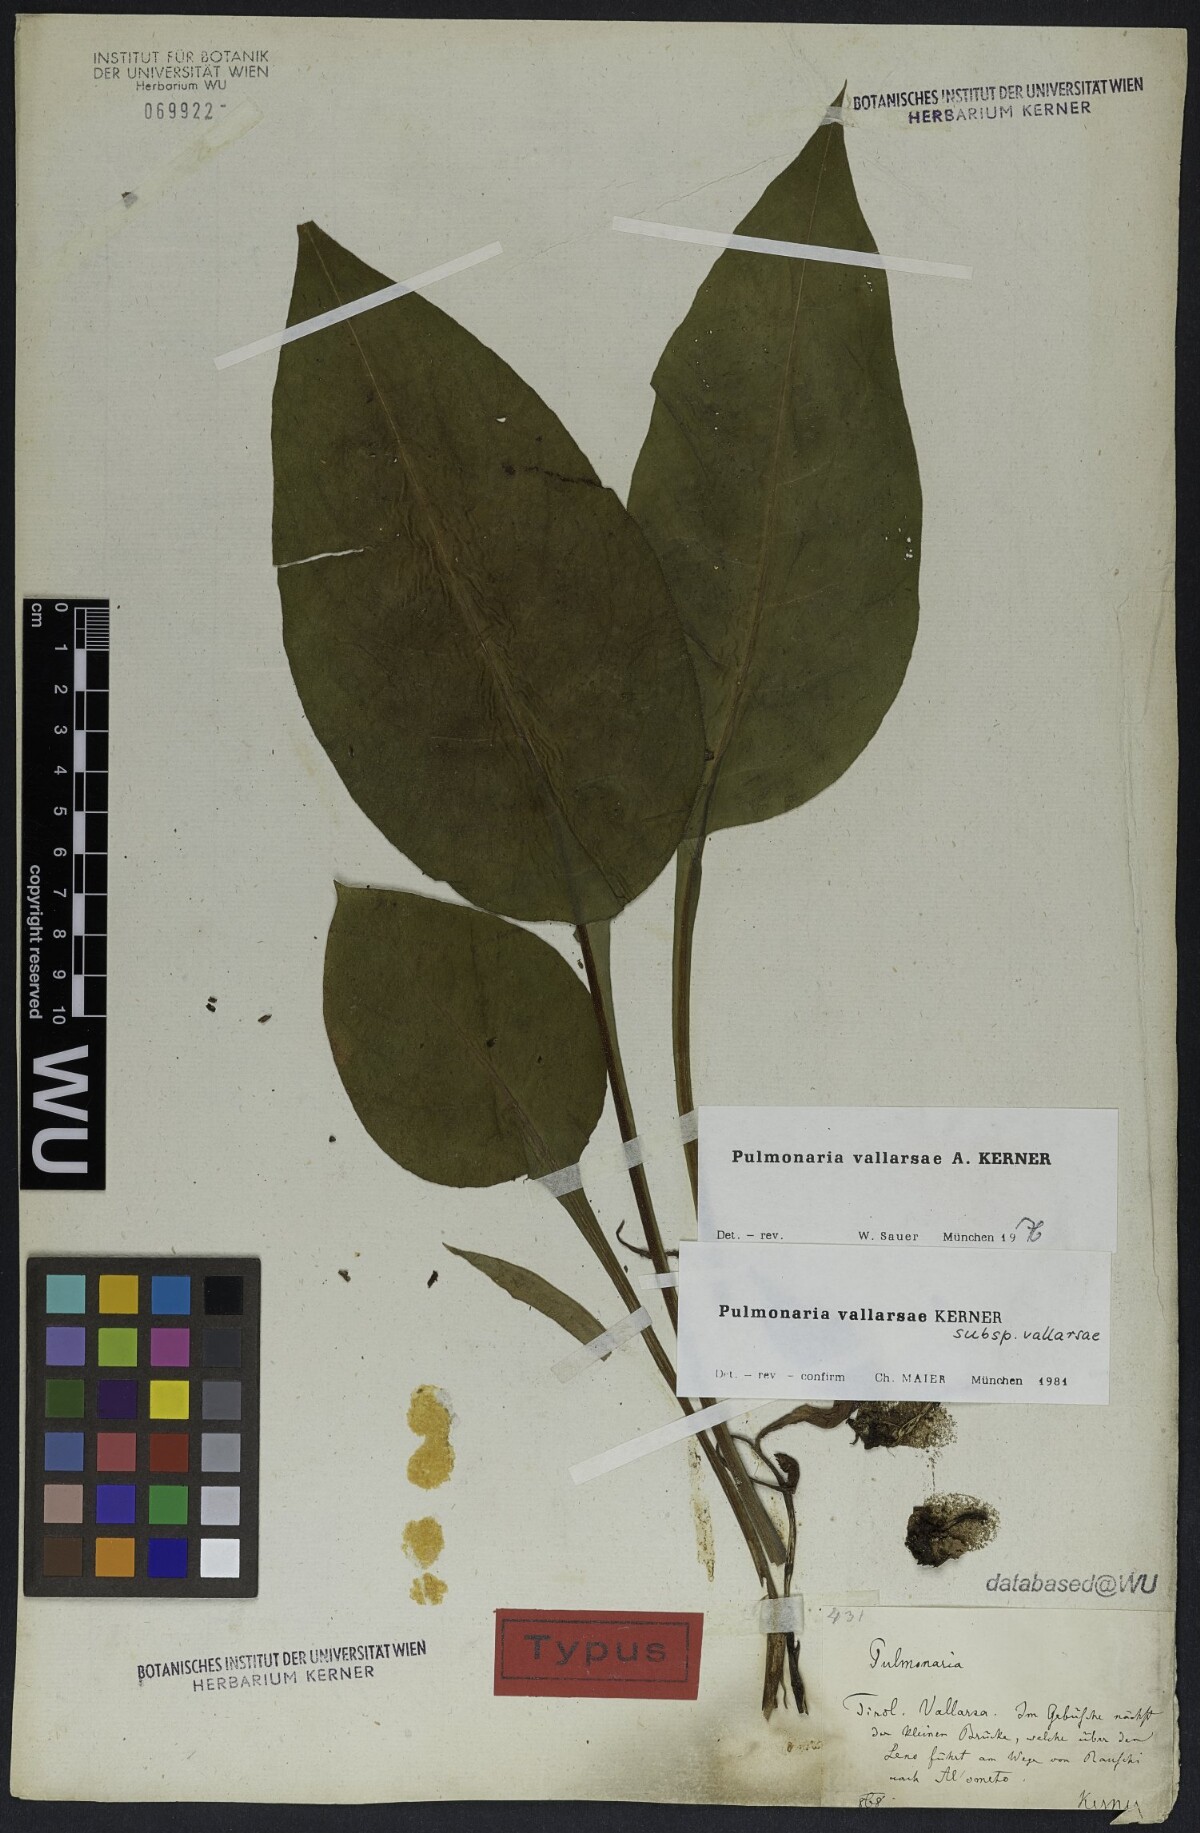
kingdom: Plantae
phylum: Tracheophyta
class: Magnoliopsida
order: Boraginales
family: Boraginaceae
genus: Pulmonaria
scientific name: Pulmonaria hirta
